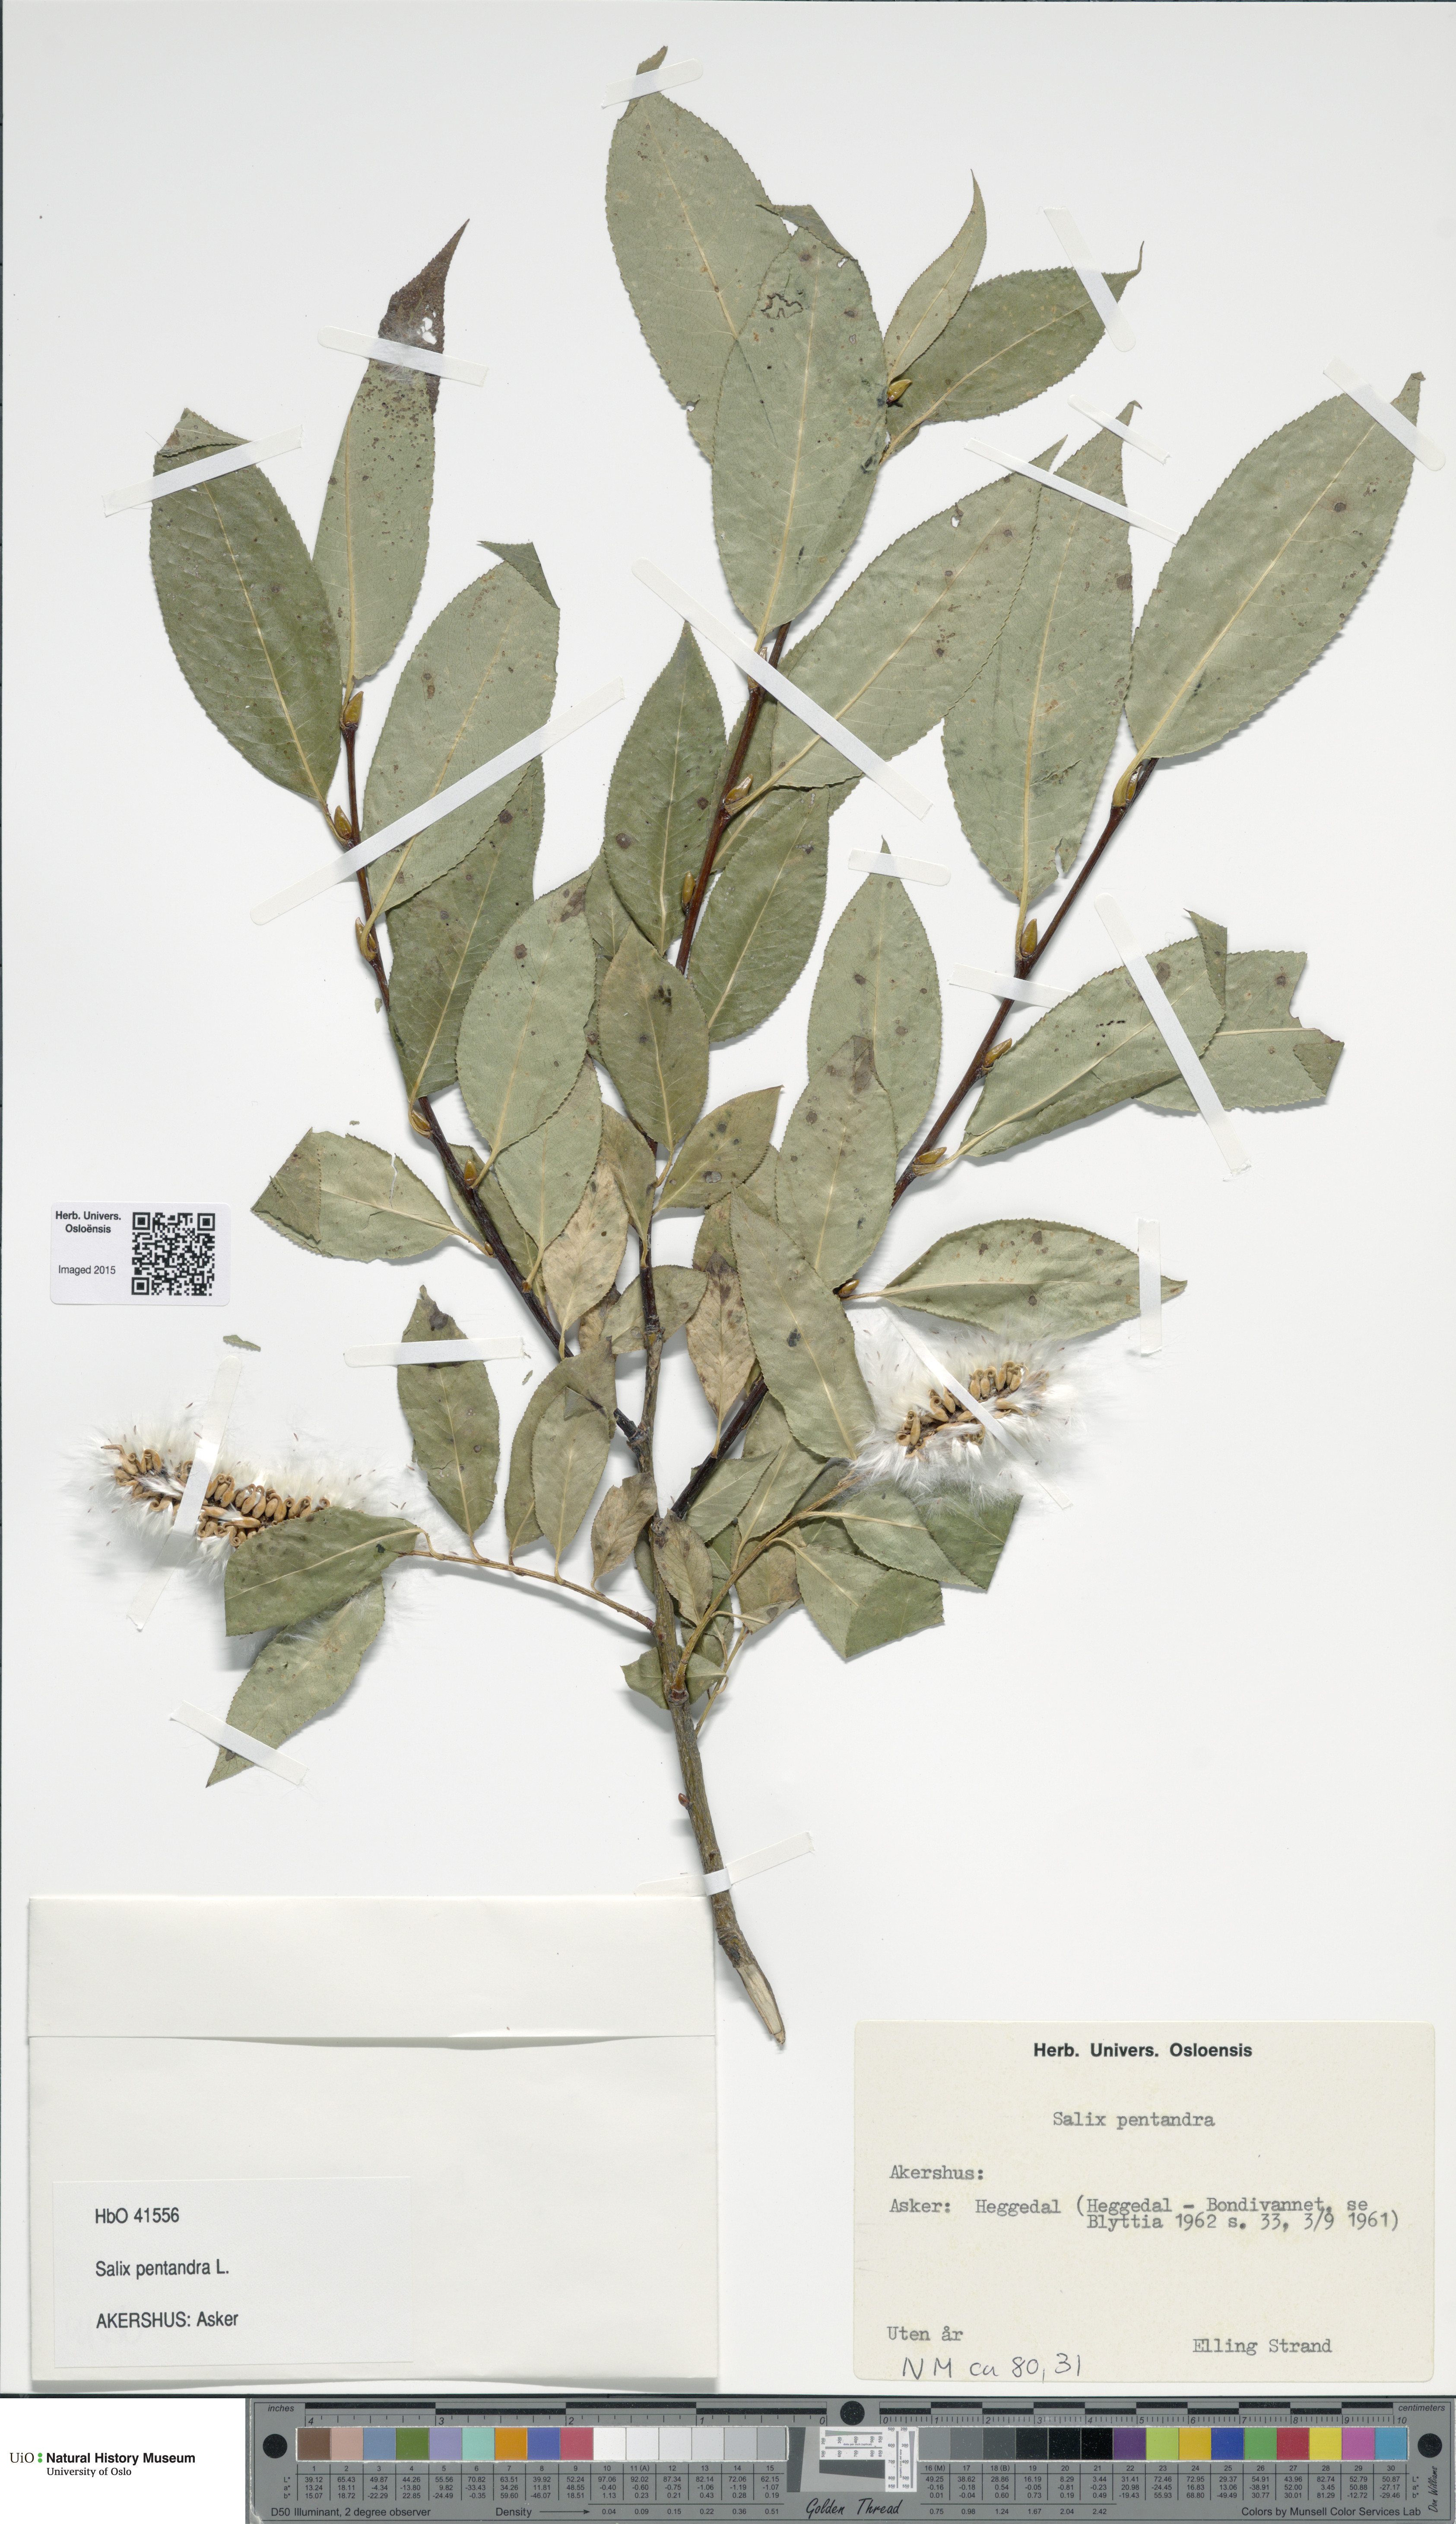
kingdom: Plantae
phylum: Tracheophyta
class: Magnoliopsida
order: Malpighiales
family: Salicaceae
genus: Salix
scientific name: Salix pentandra
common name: Bay willow
